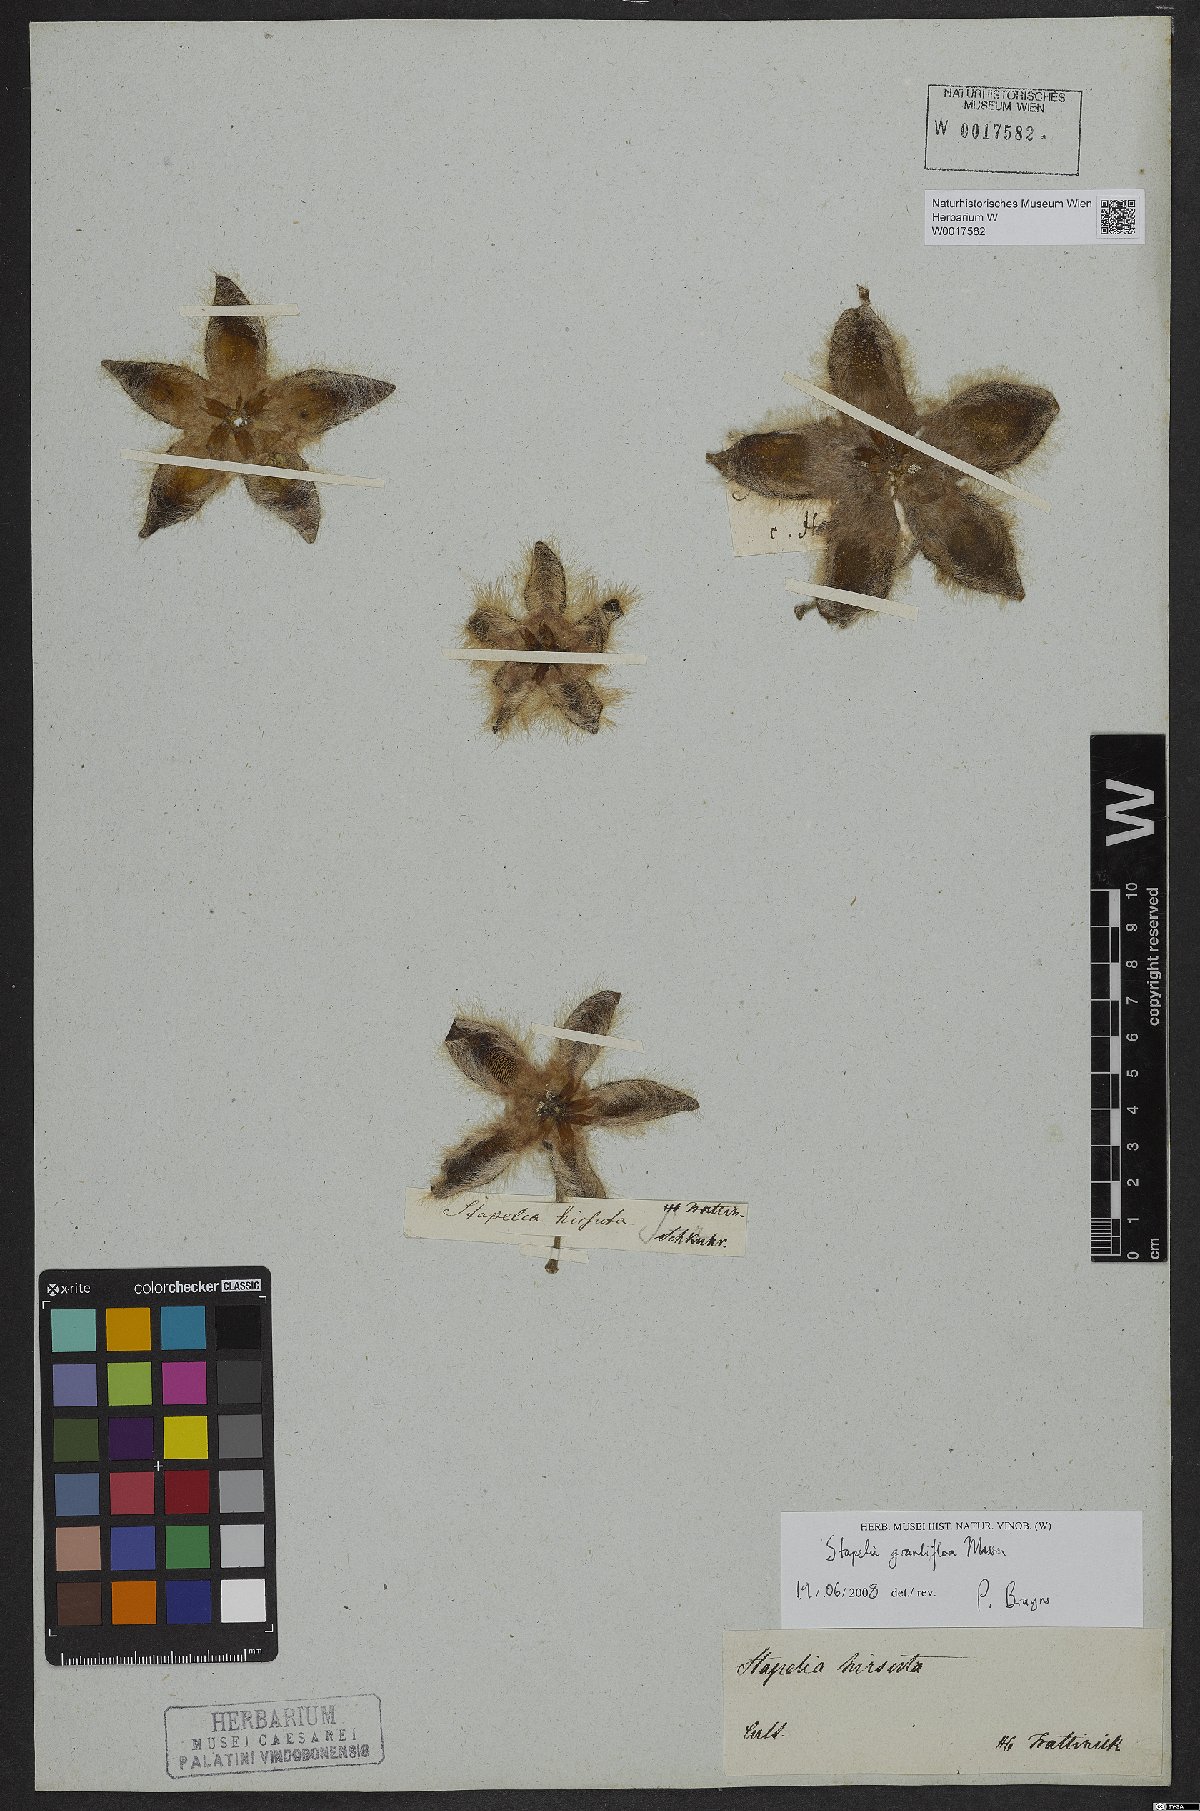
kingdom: Plantae
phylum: Tracheophyta
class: Magnoliopsida
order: Gentianales
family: Apocynaceae
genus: Ceropegia
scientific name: Ceropegia grandiflora
